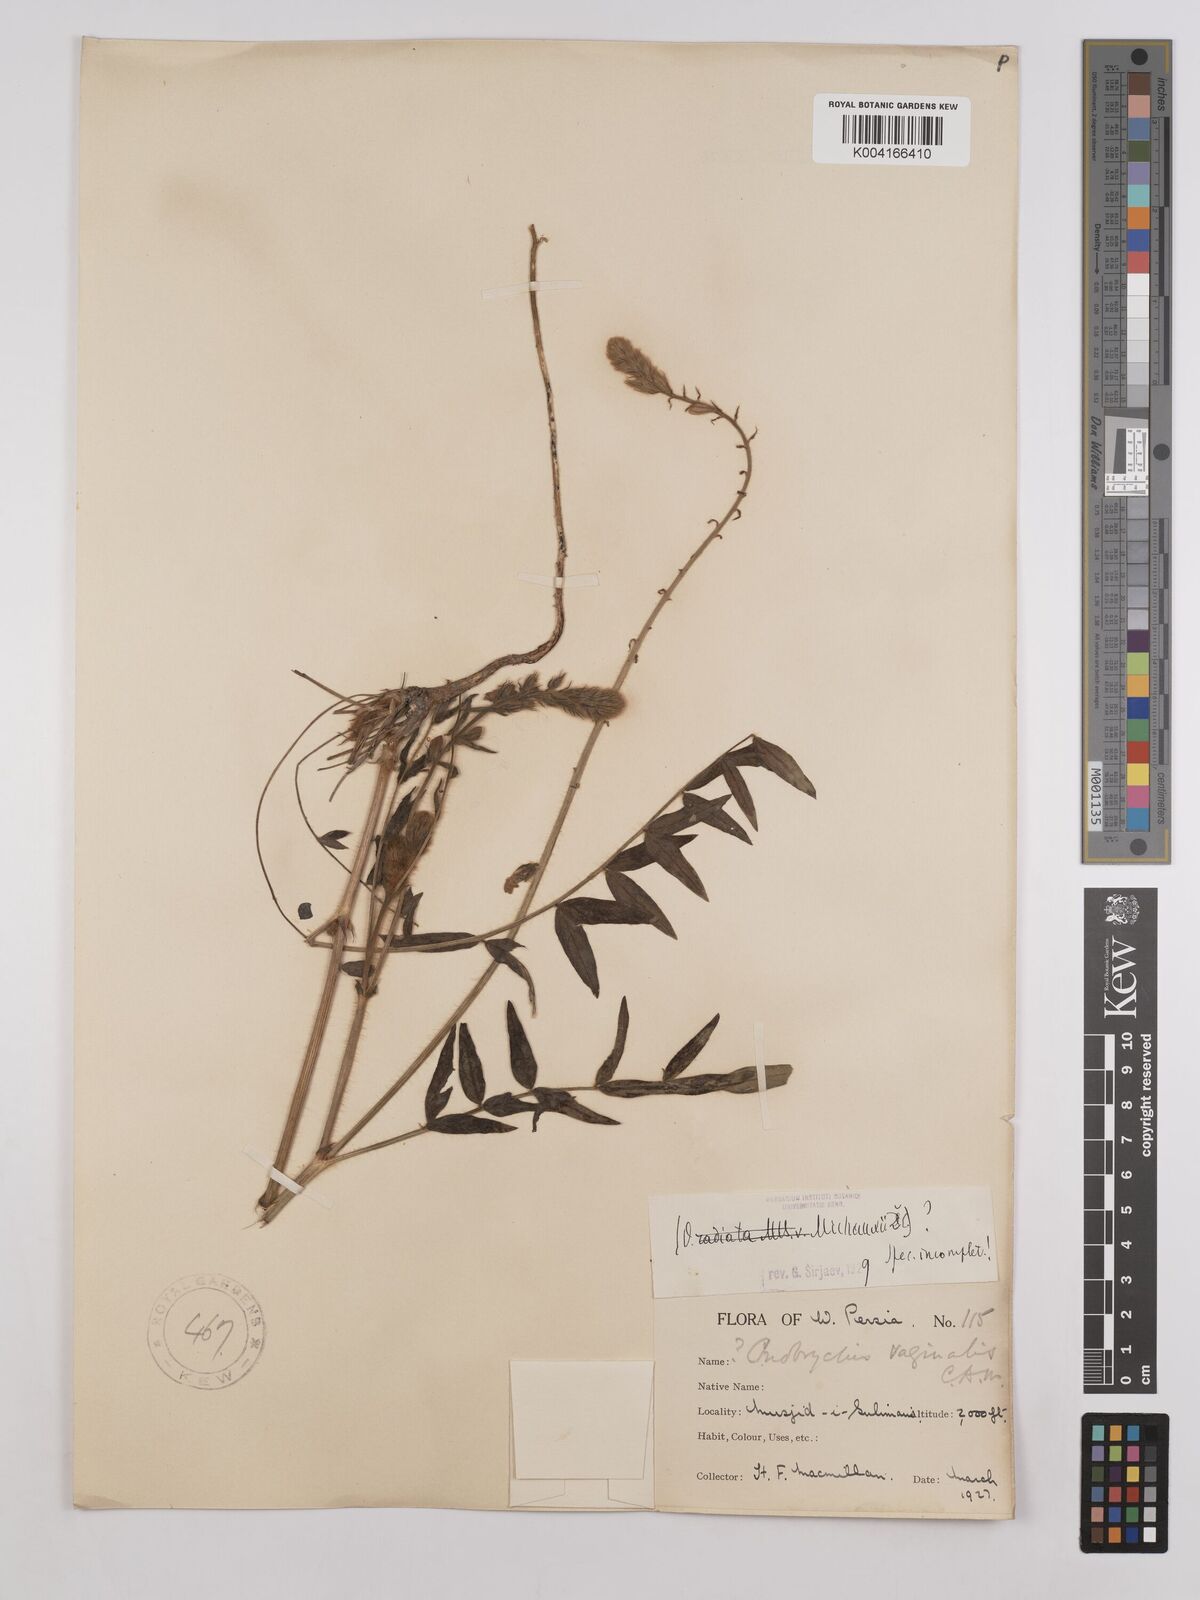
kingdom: Plantae
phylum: Tracheophyta
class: Magnoliopsida
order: Fabales
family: Fabaceae
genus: Onobrychis
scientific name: Onobrychis
